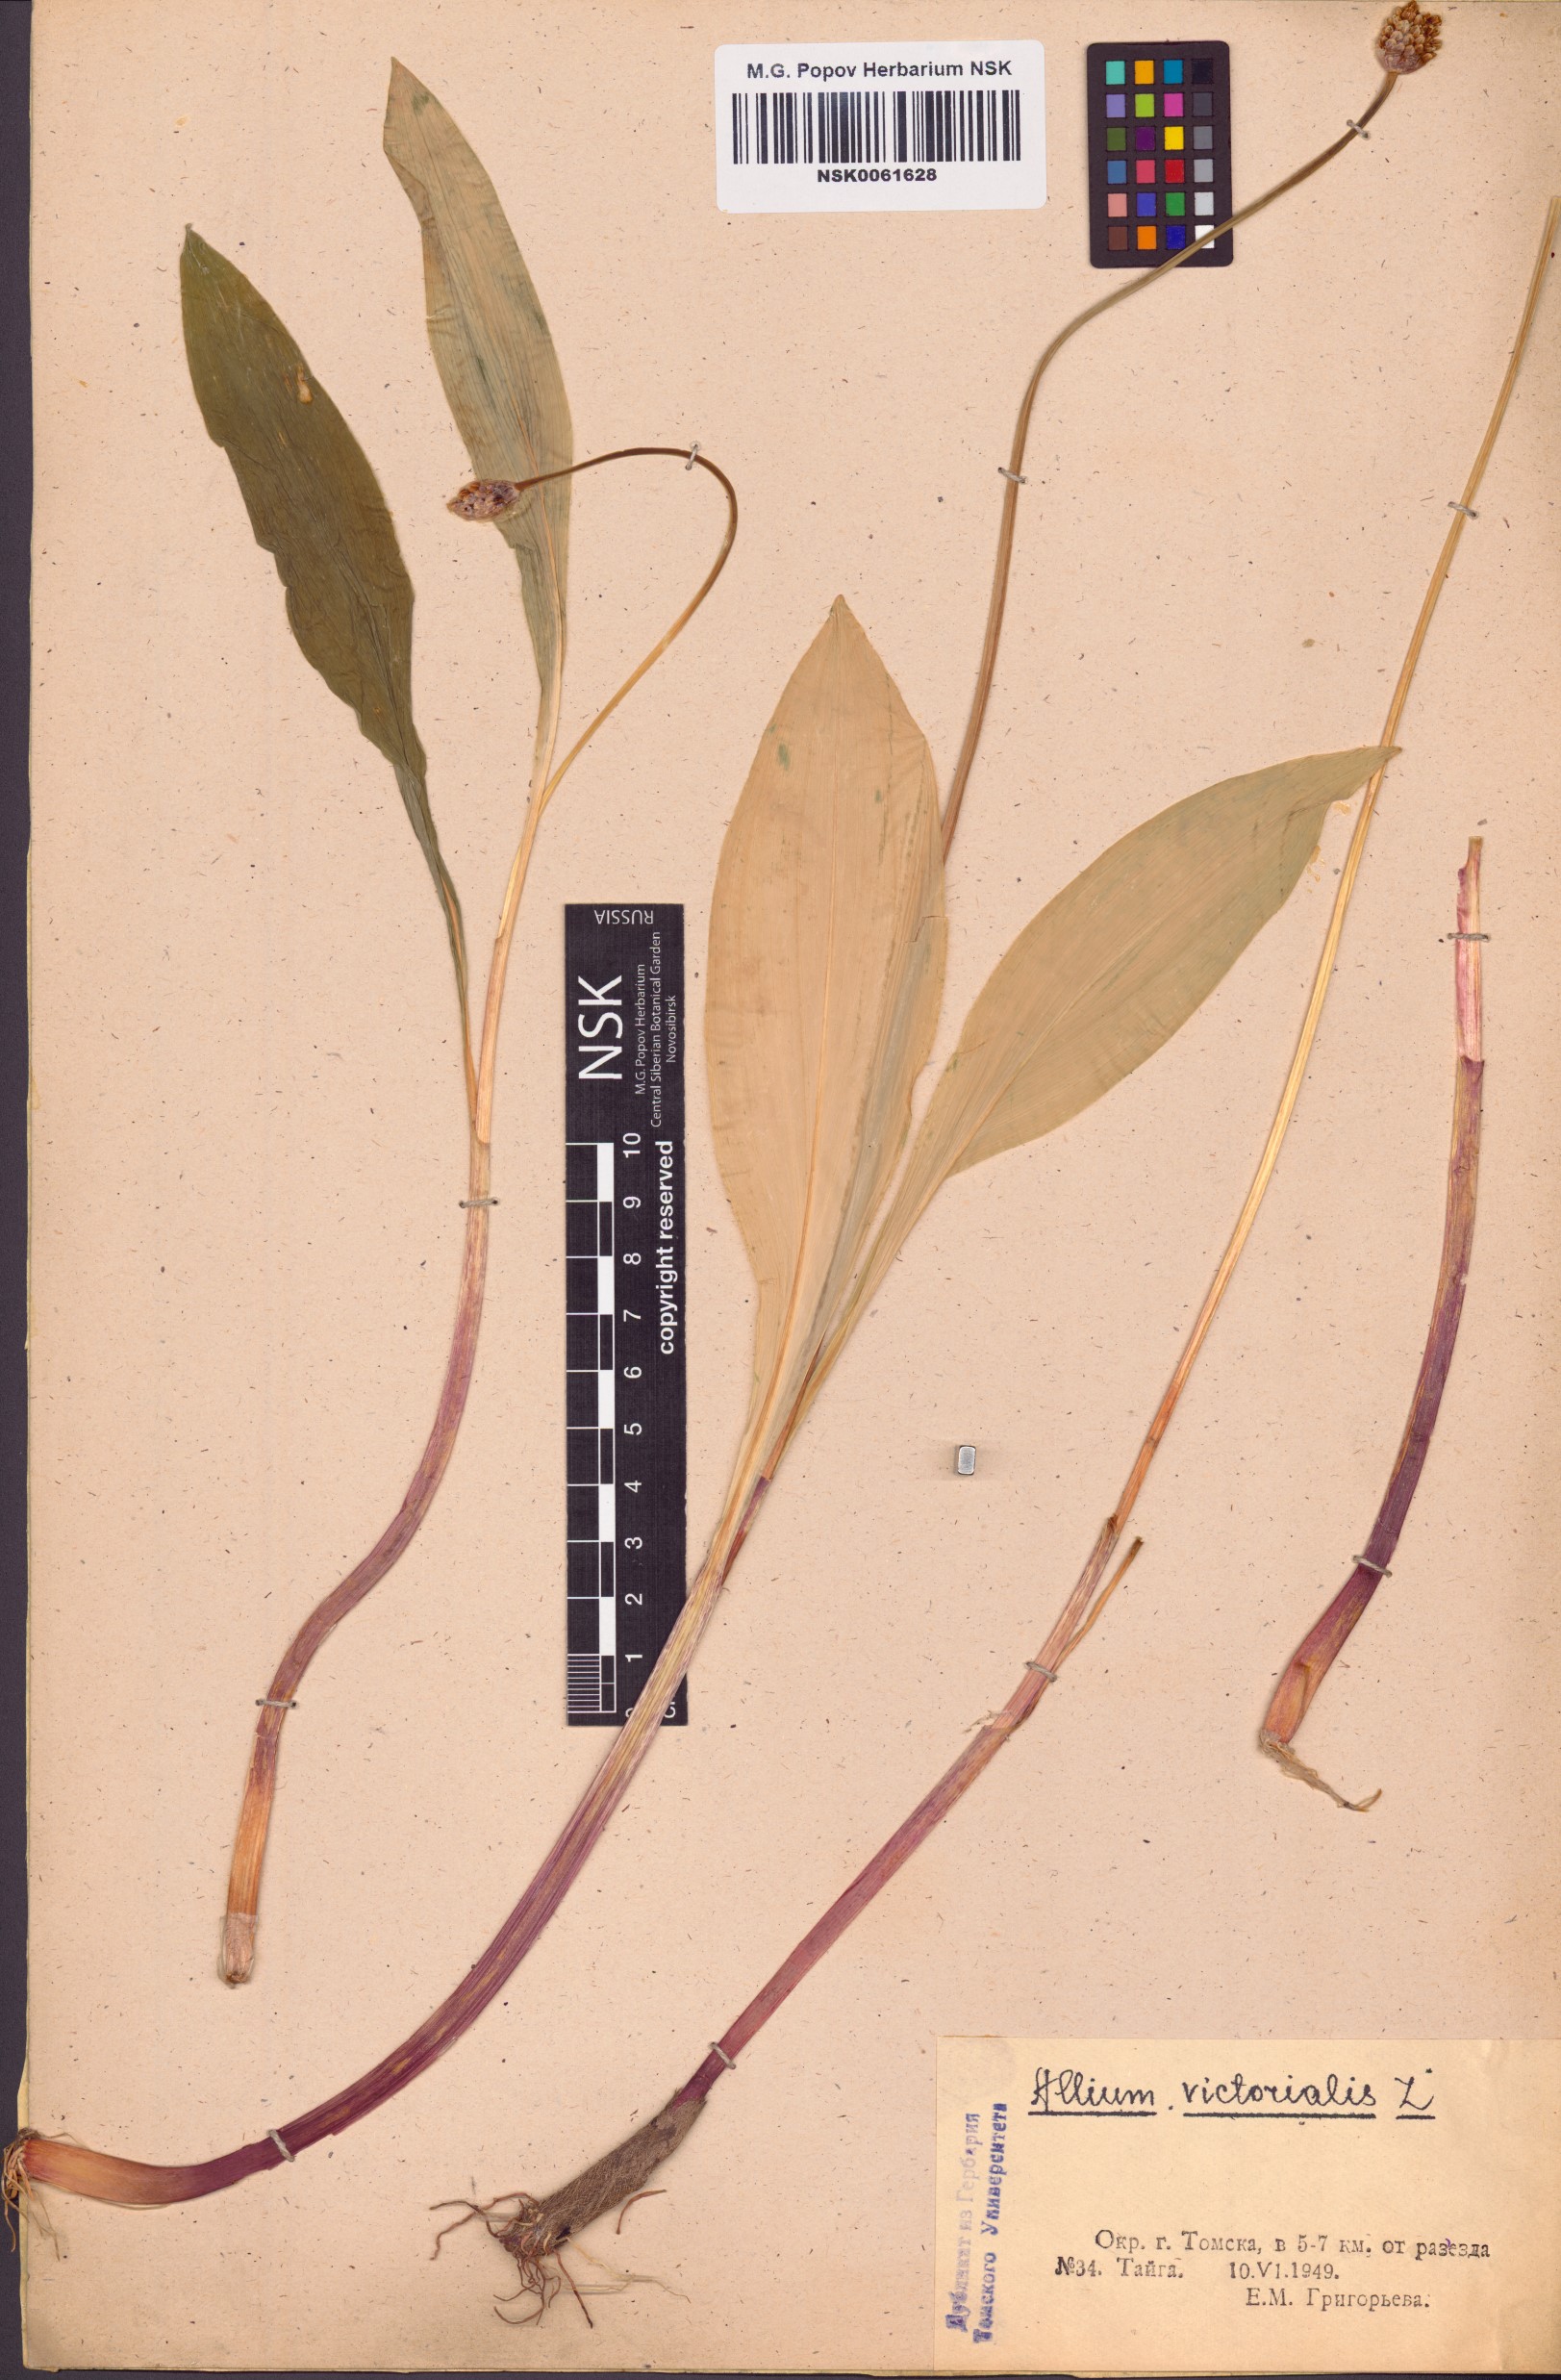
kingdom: Plantae
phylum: Tracheophyta
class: Liliopsida
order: Asparagales
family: Amaryllidaceae
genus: Allium
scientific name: Allium victorialis
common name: Alpine leek
